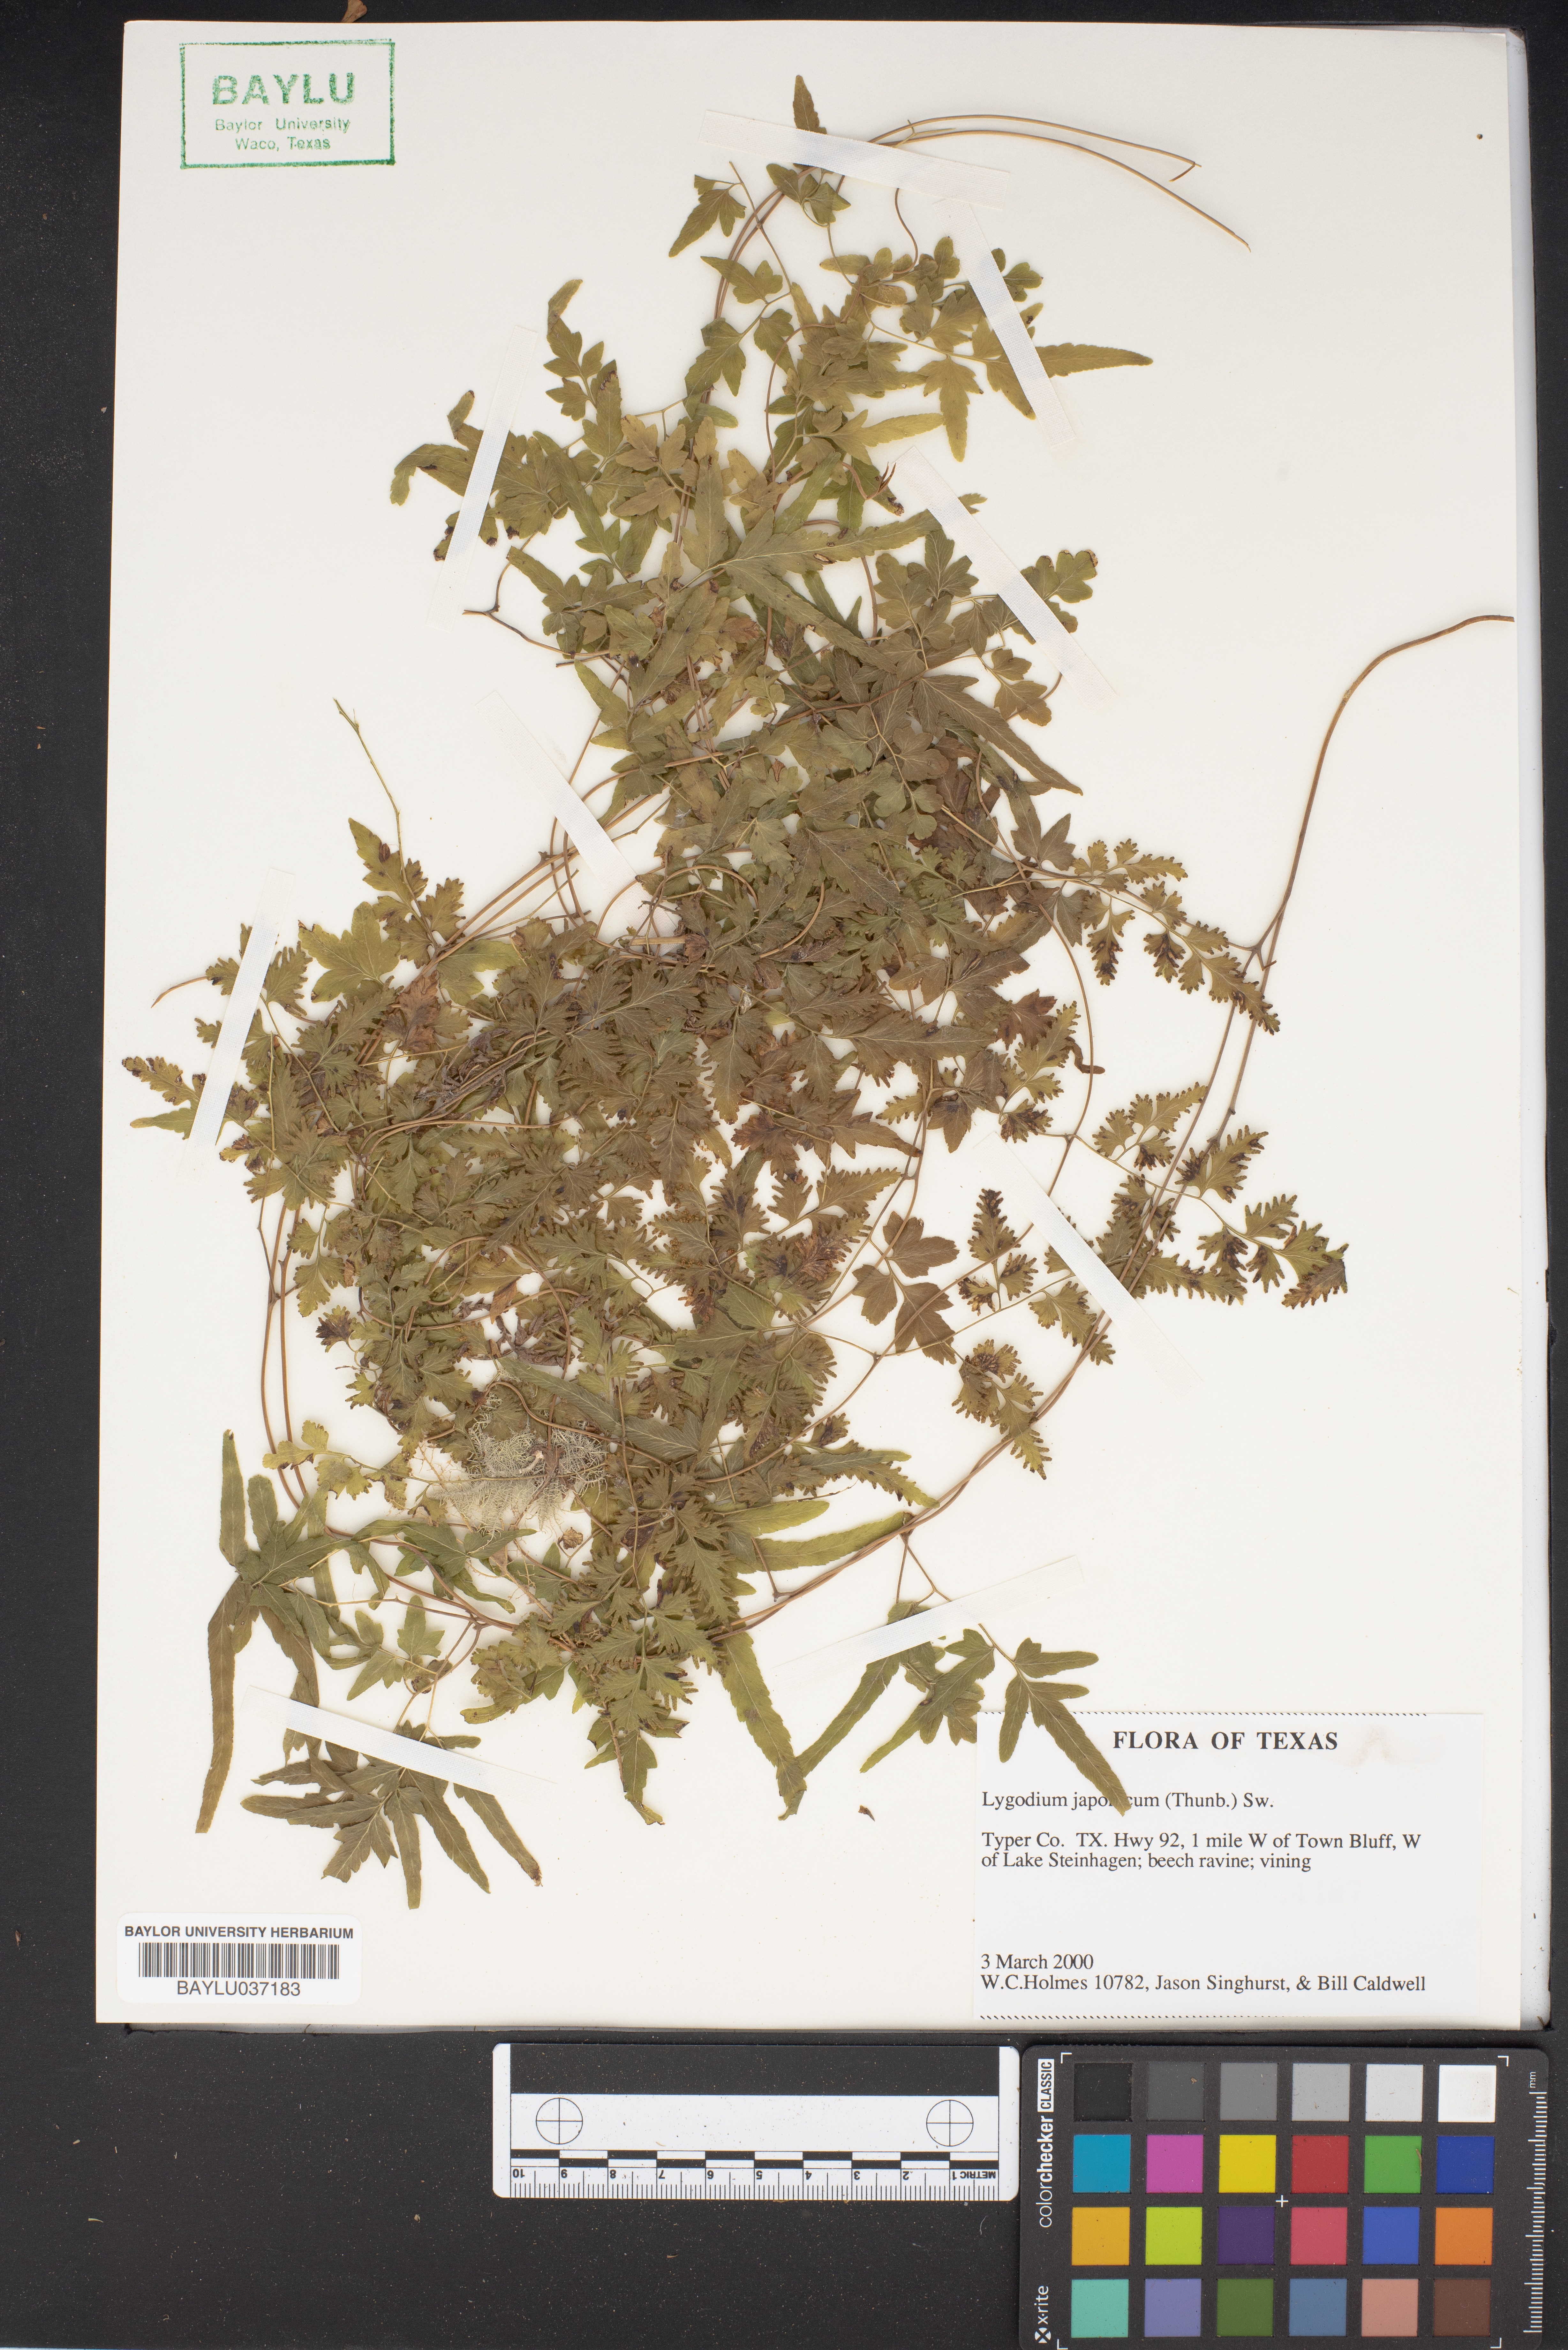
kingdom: Plantae
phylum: Tracheophyta
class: Polypodiopsida
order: Schizaeales
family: Lygodiaceae
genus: Lygodium
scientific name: Lygodium japonicum
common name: Japanese climbing fern
